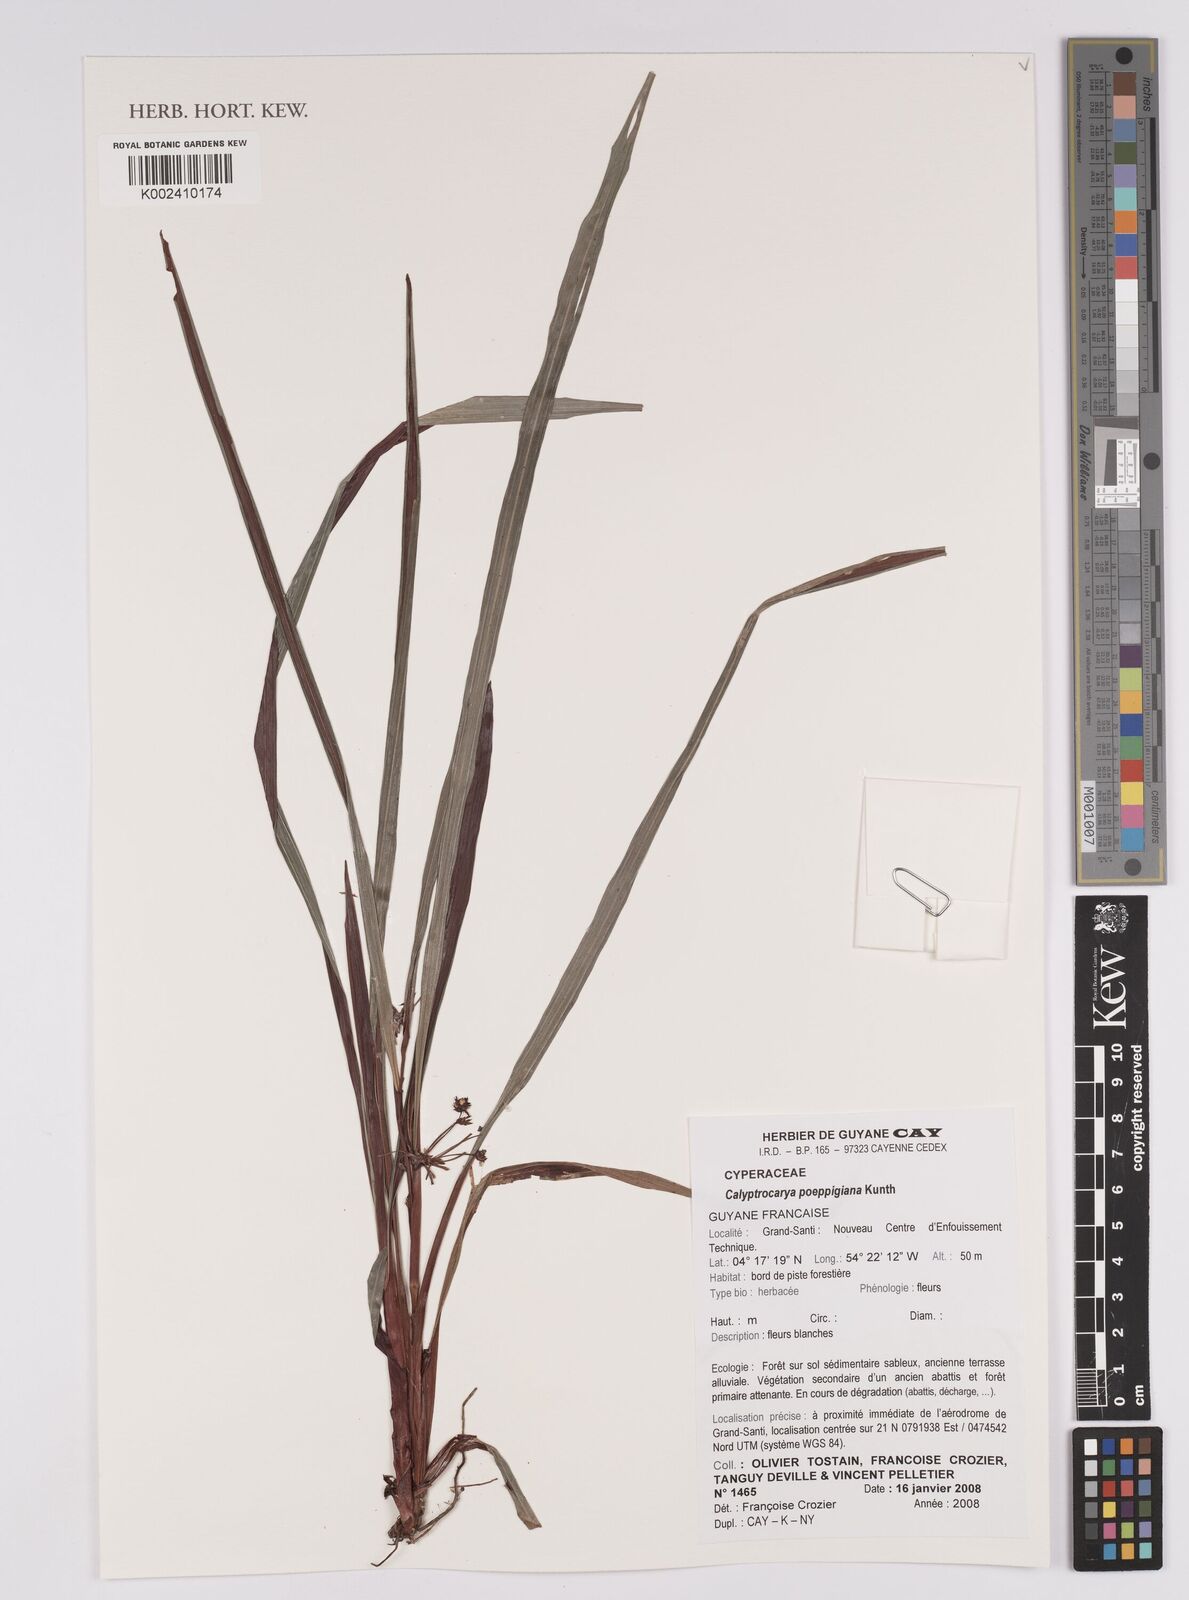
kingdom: Plantae
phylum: Tracheophyta
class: Liliopsida
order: Poales
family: Cyperaceae
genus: Calyptrocarya
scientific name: Calyptrocarya poeppigiana
